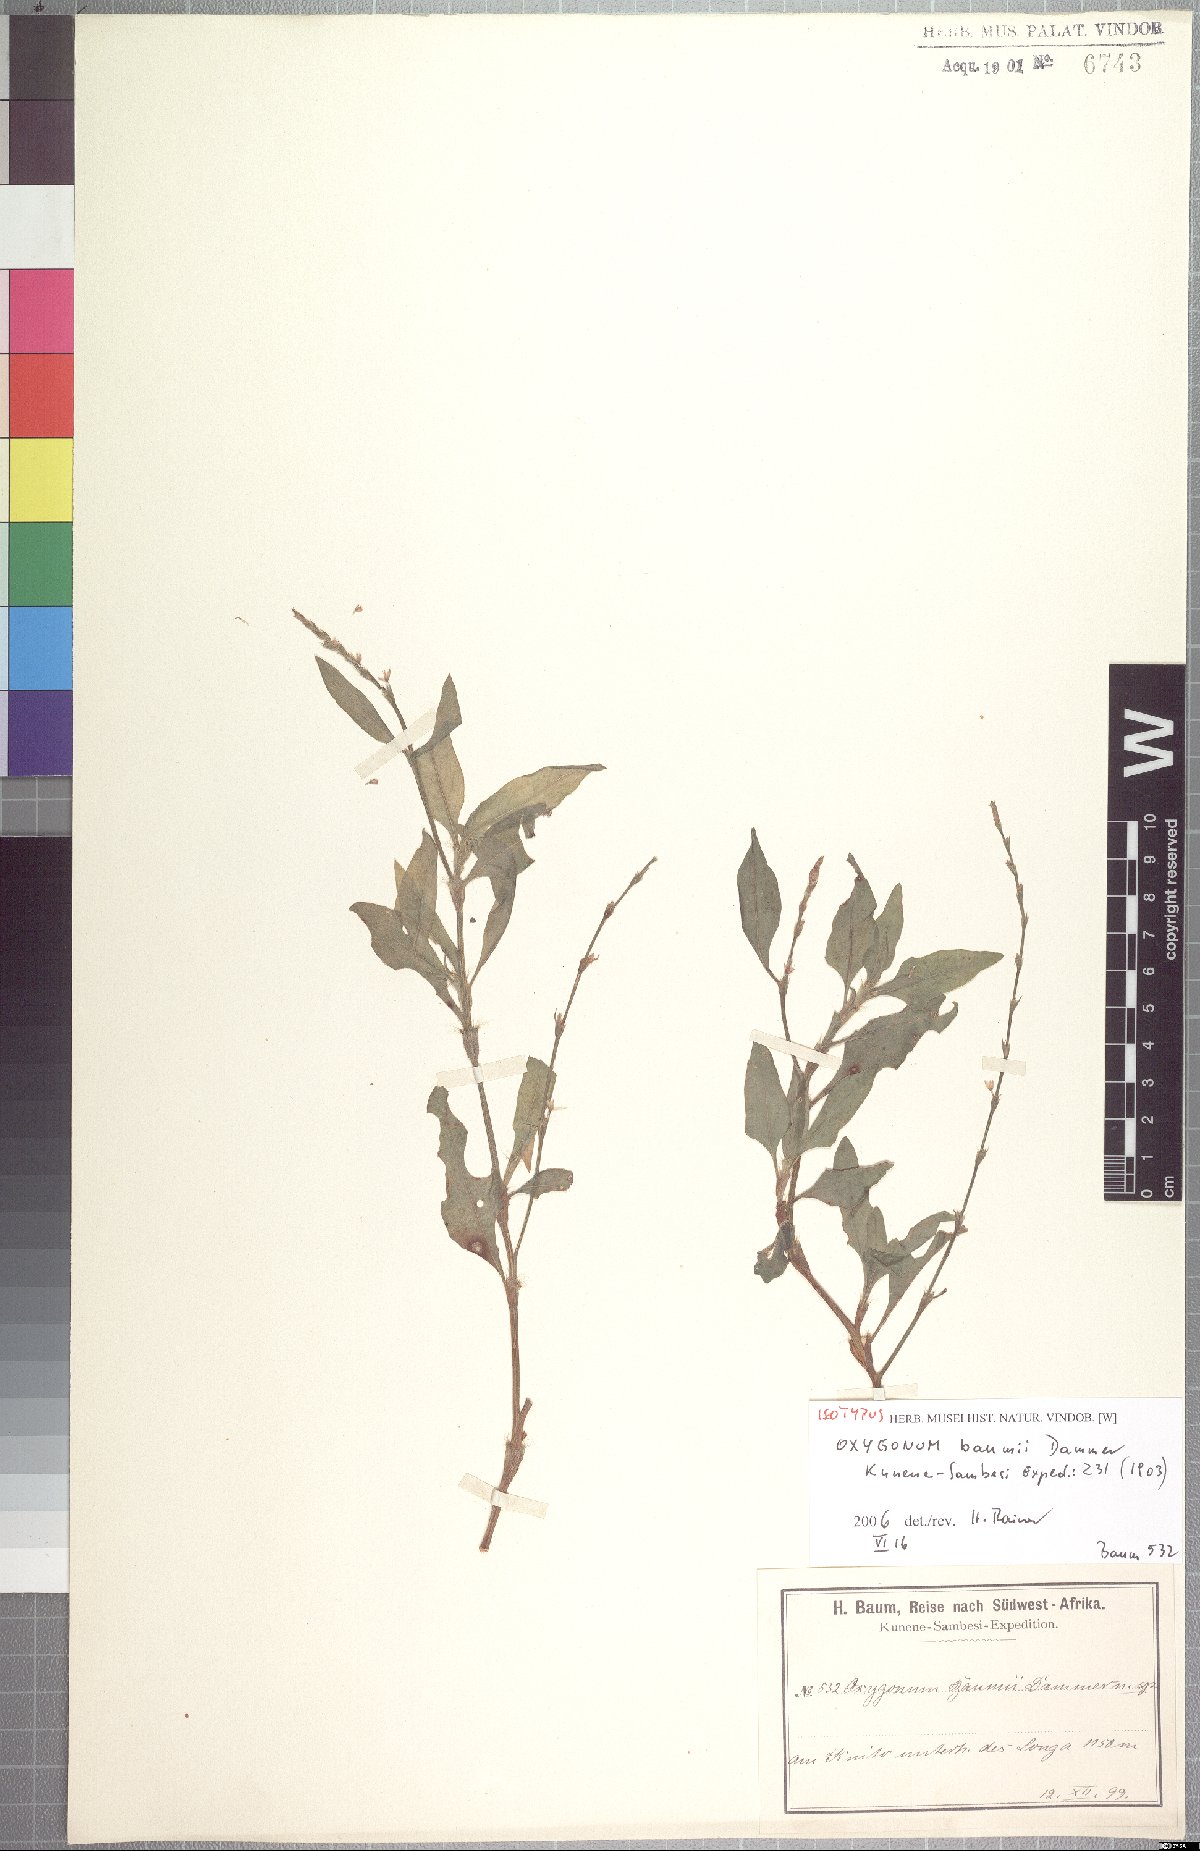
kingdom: Plantae
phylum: Tracheophyta
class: Magnoliopsida
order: Caryophyllales
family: Polygonaceae
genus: Oxygonum
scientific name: Oxygonum stuhlmannii
